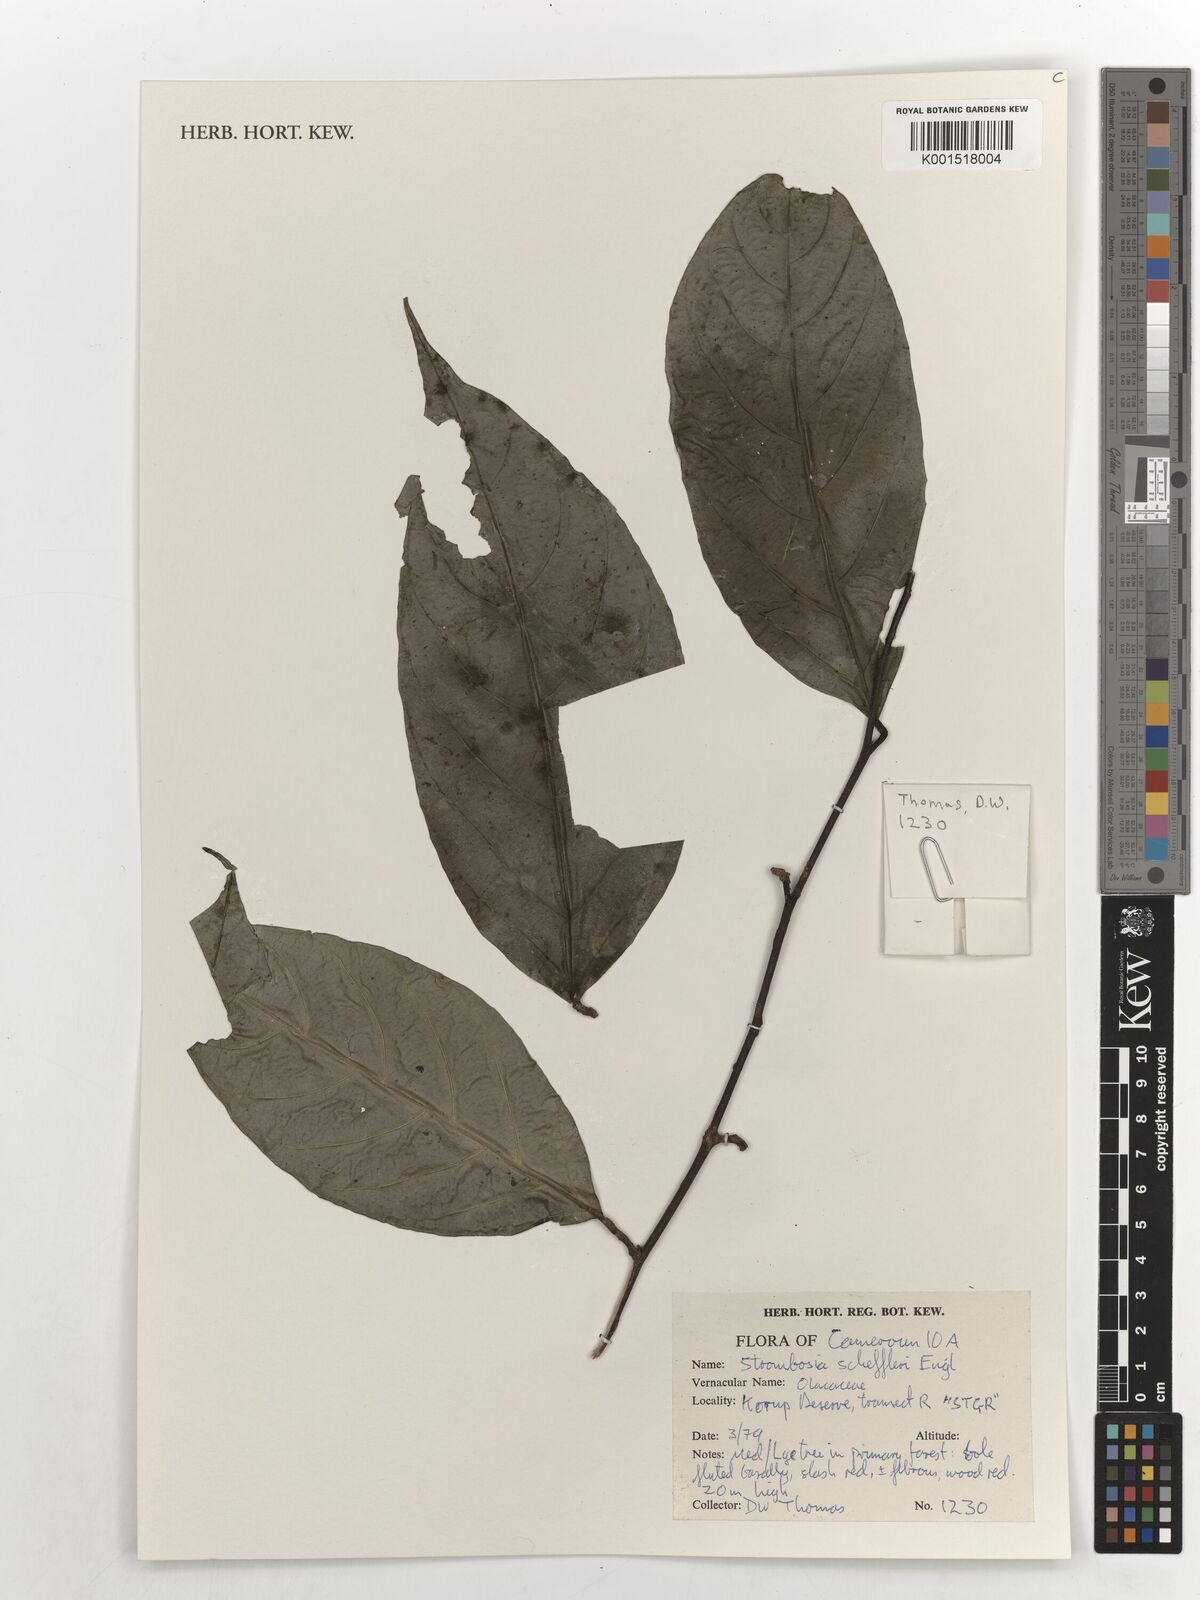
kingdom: Plantae
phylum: Tracheophyta
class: Magnoliopsida
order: Santalales
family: Strombosiaceae
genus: Strombosia
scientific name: Strombosia scheffleri
